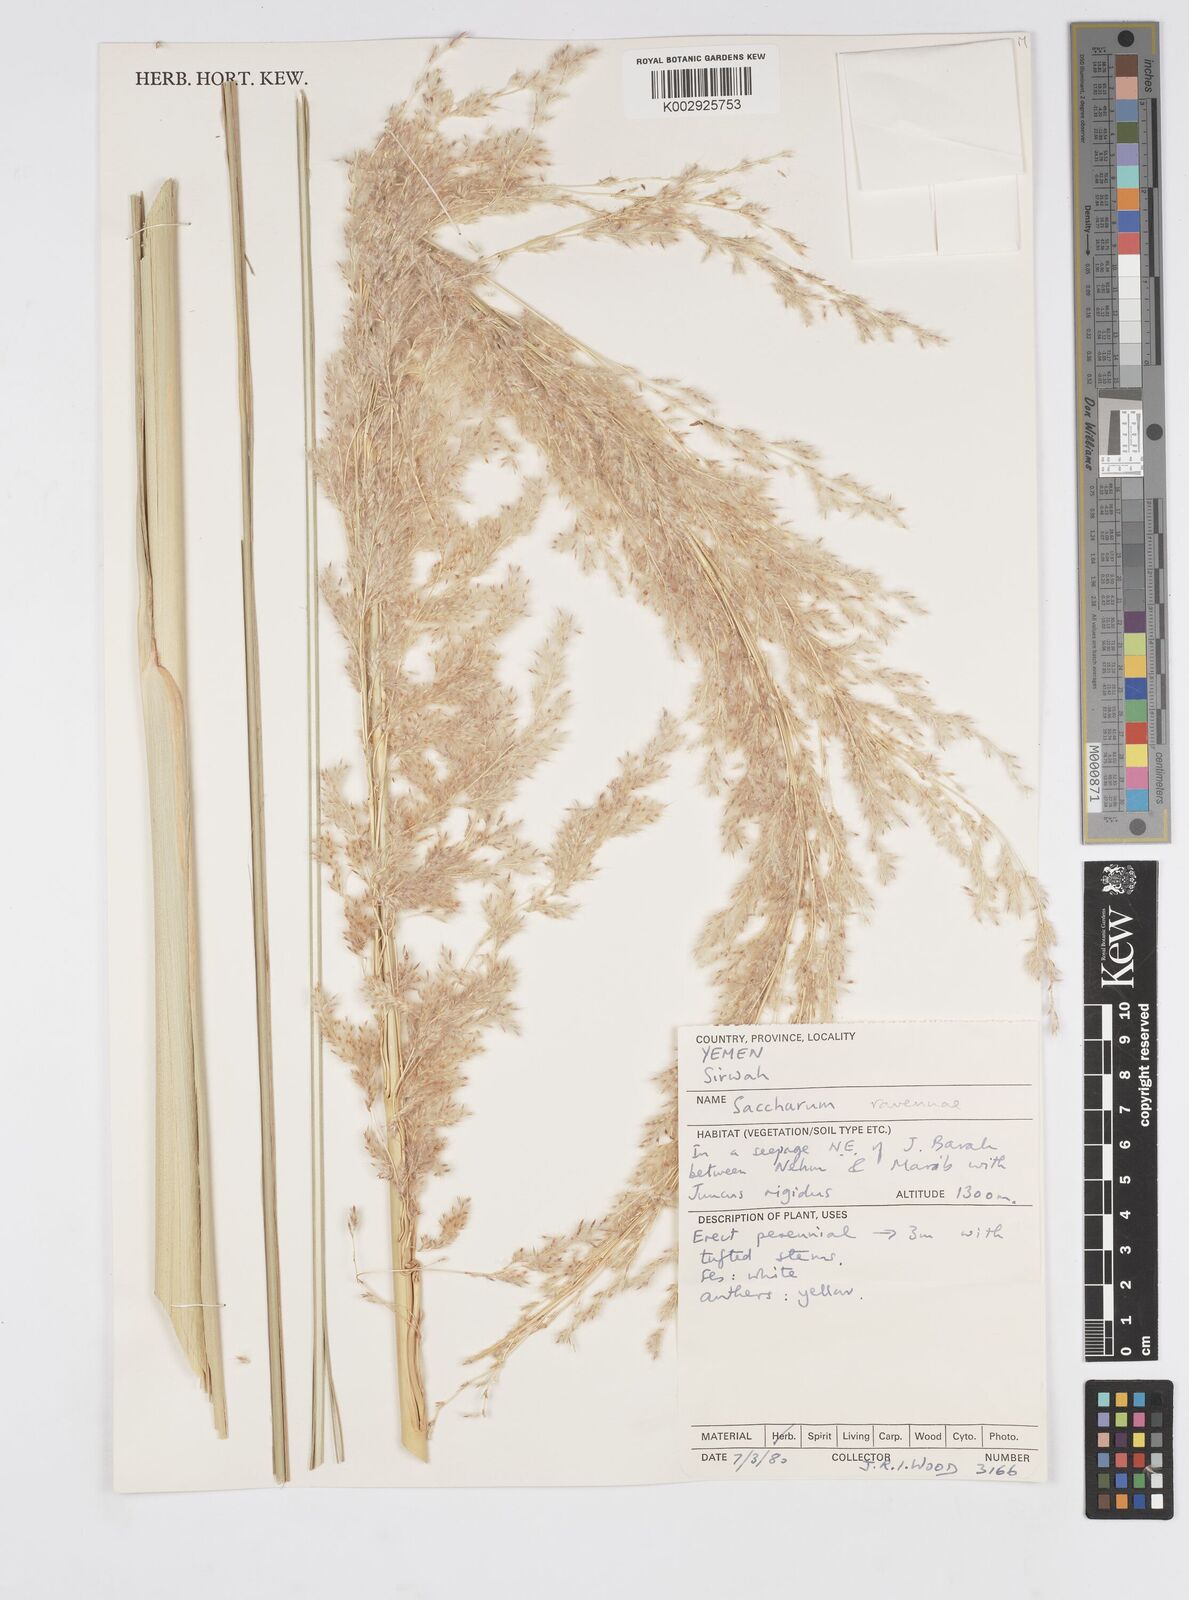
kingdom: Plantae
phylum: Tracheophyta
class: Liliopsida
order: Poales
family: Poaceae
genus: Tripidium
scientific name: Tripidium ravennae
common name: Ravenna grass
